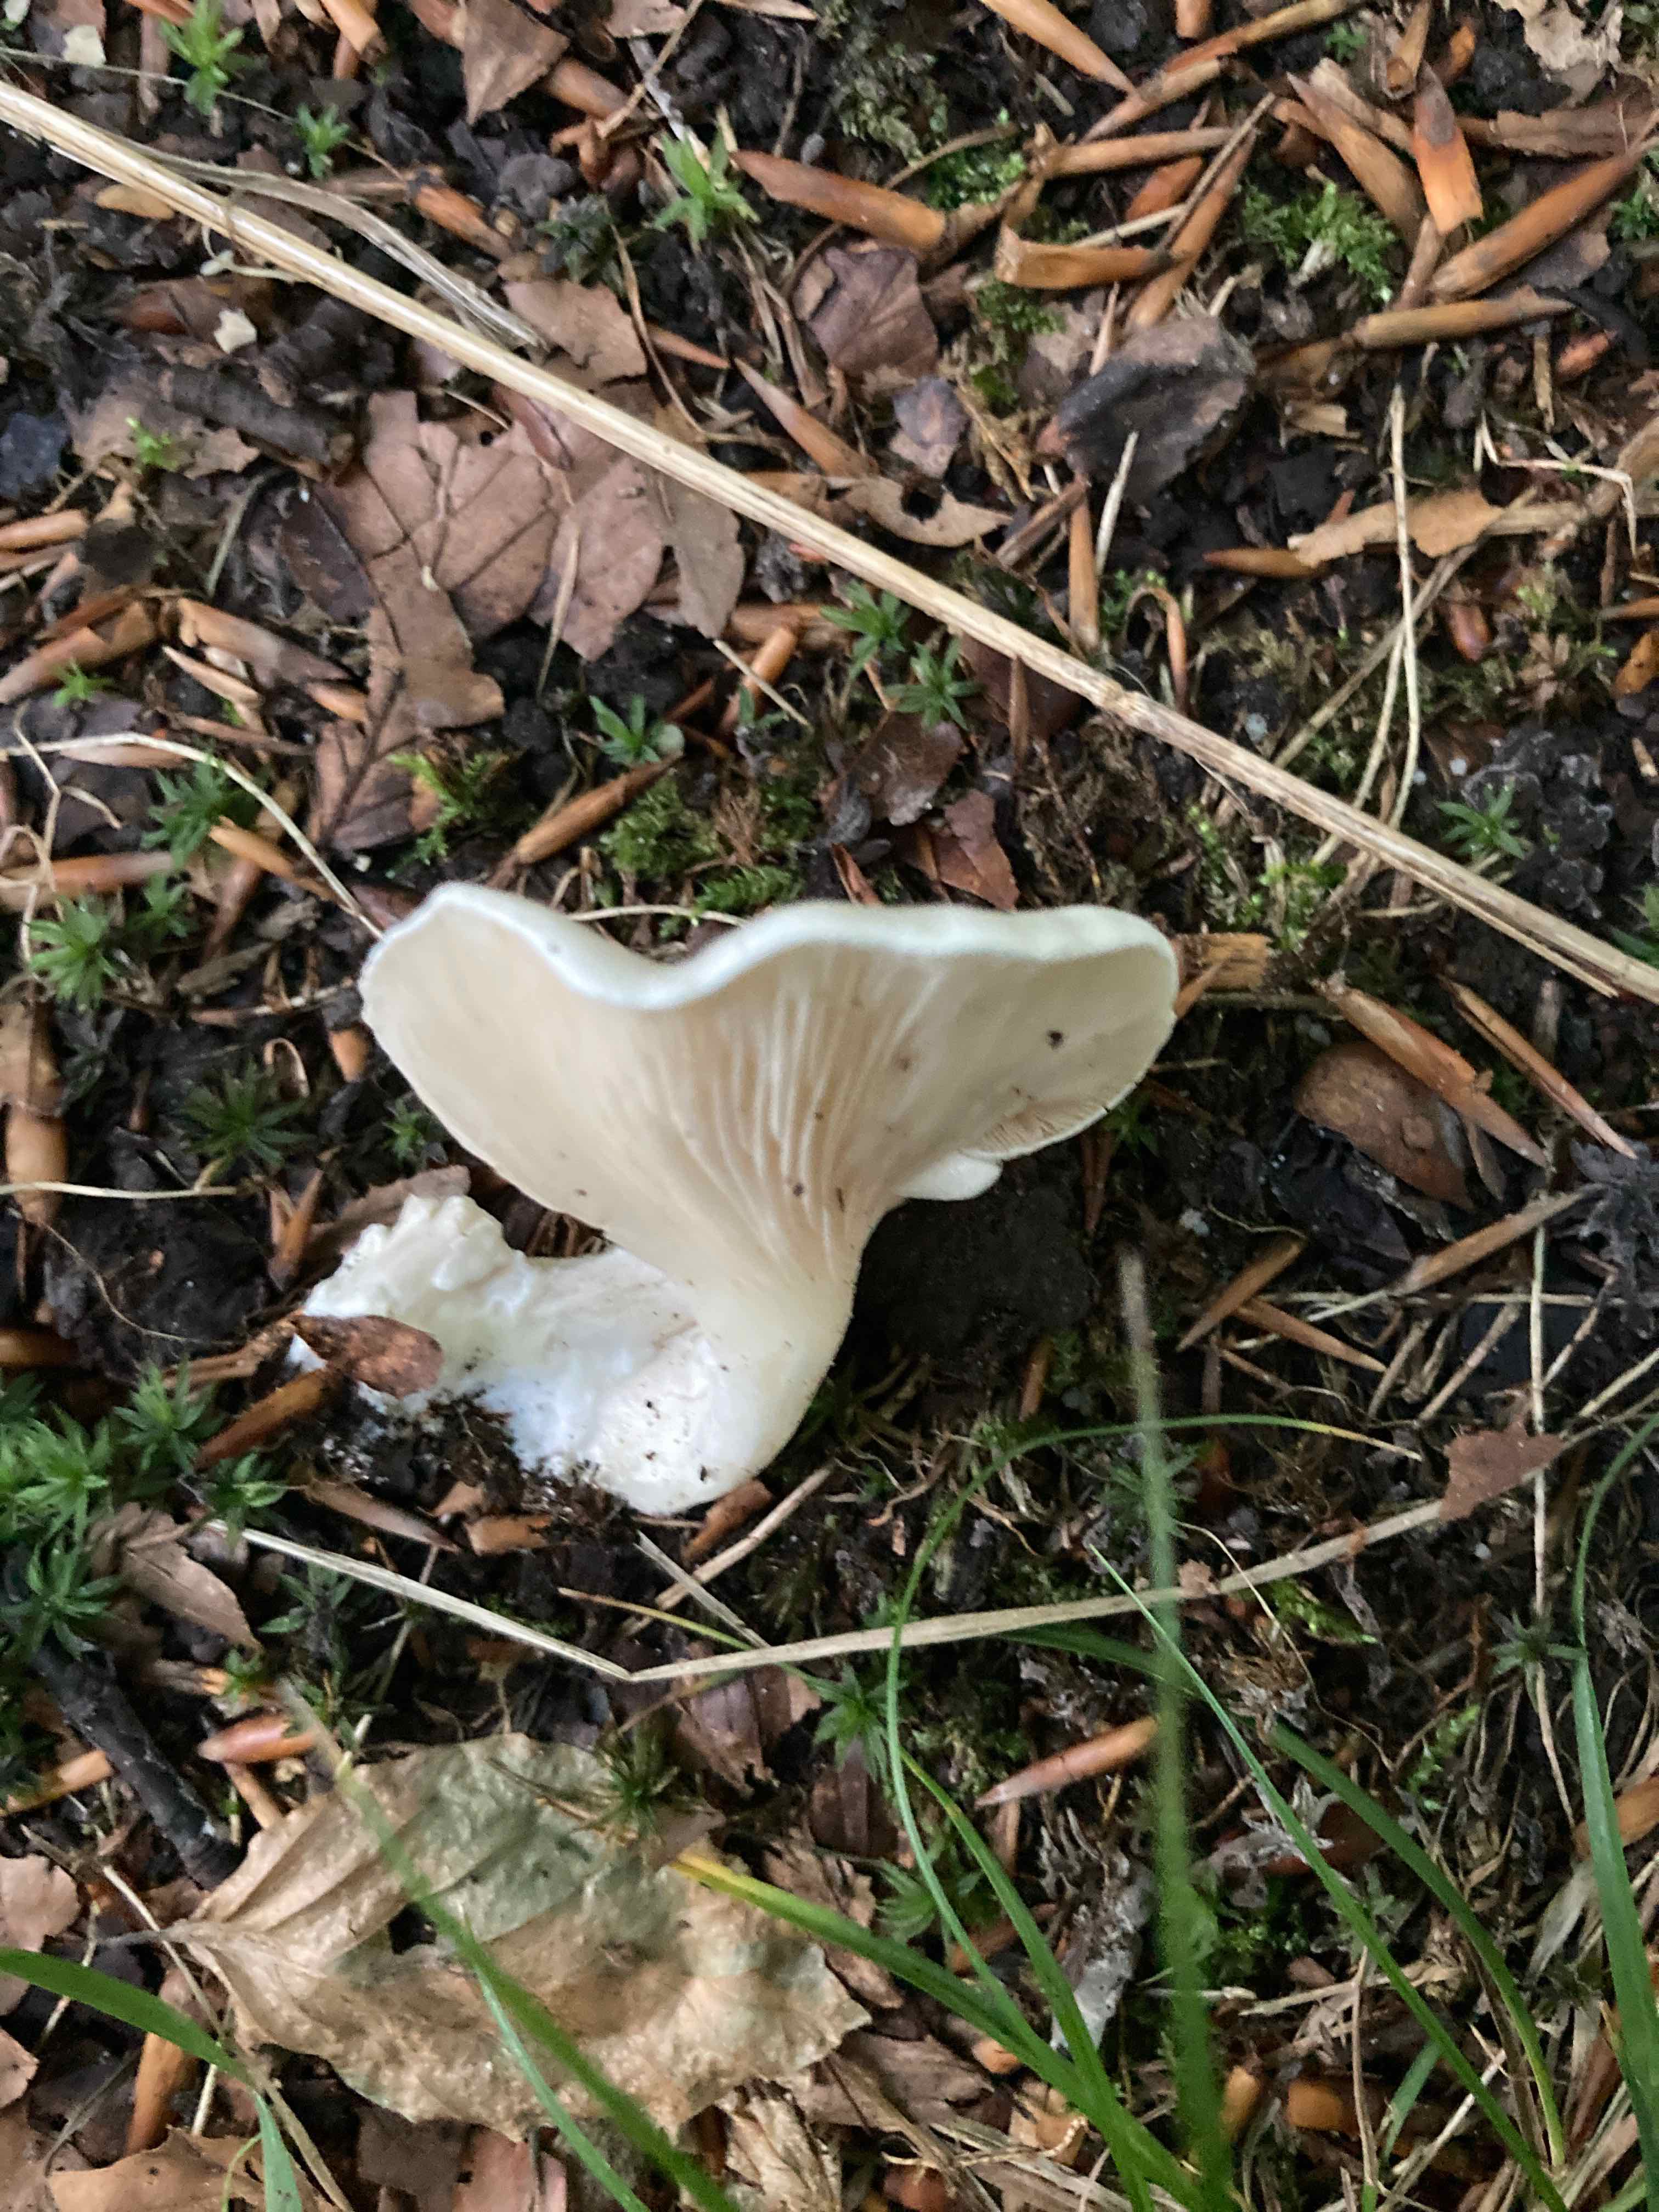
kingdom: Fungi
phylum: Basidiomycota
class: Agaricomycetes
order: Agaricales
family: Entolomataceae
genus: Clitopilus
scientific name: Clitopilus prunulus
